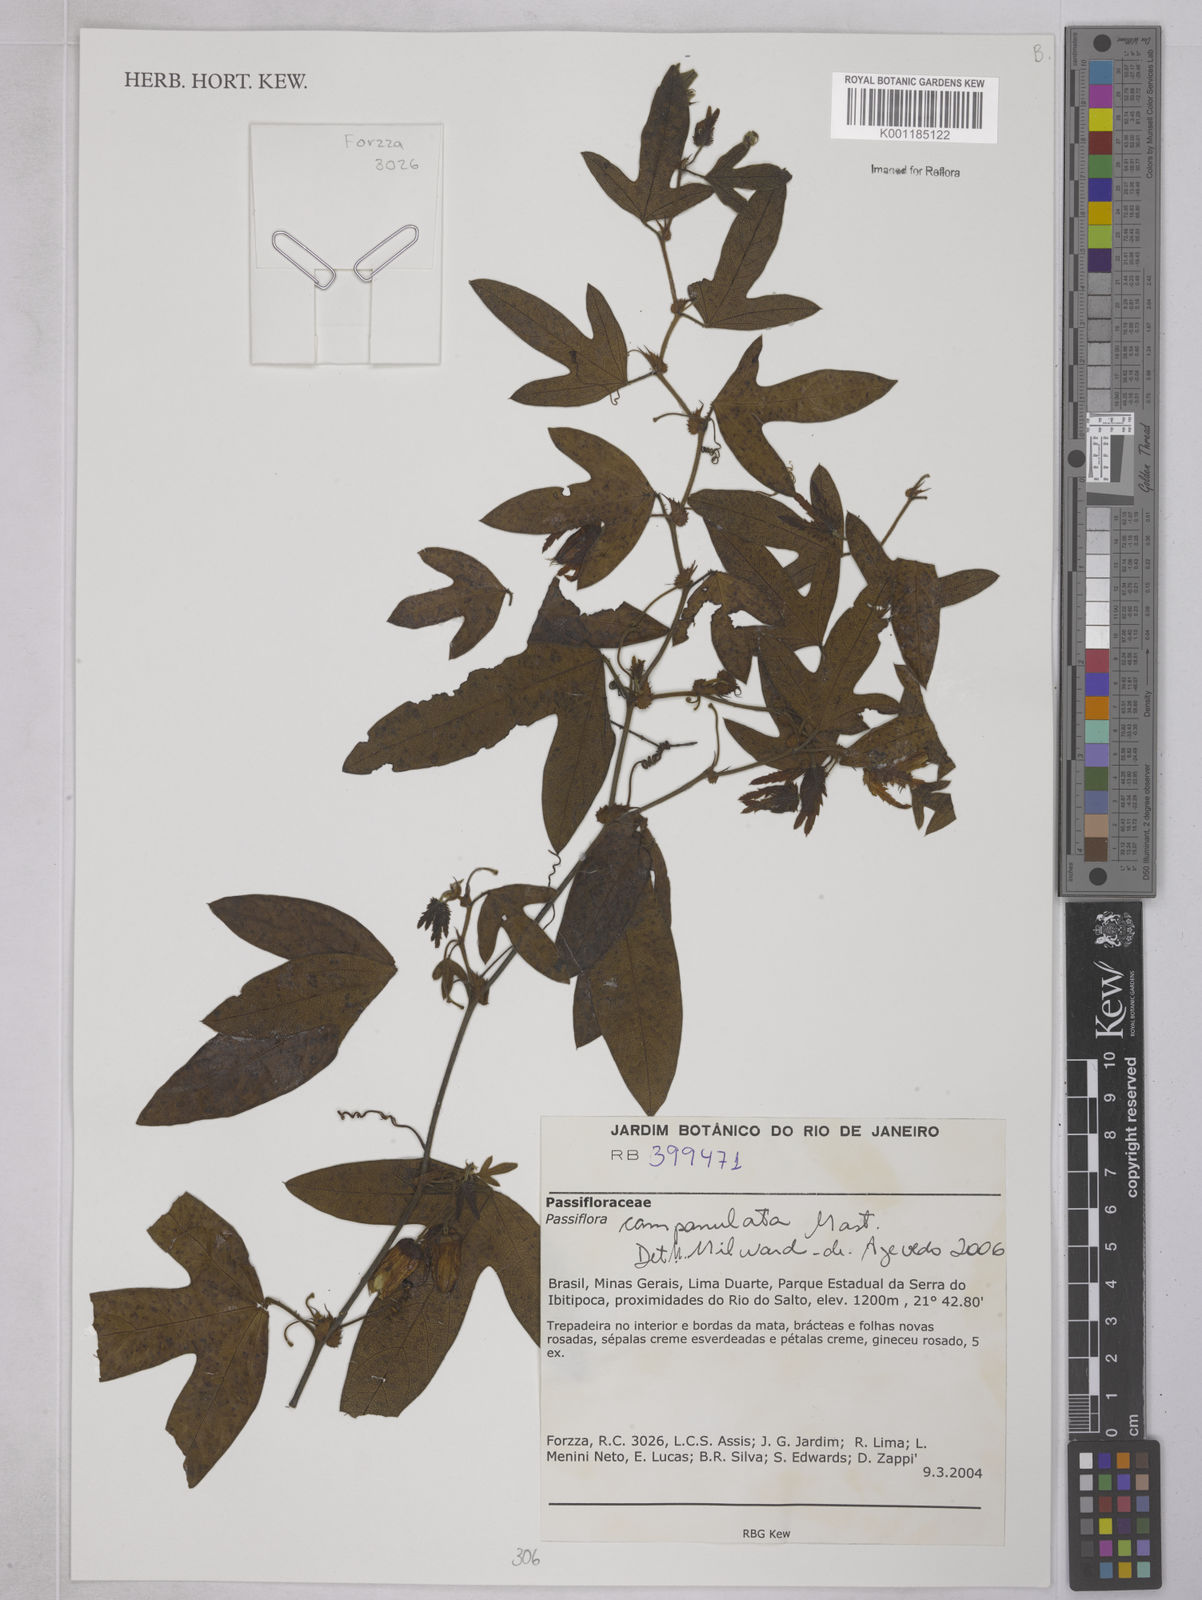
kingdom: Plantae
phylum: Tracheophyta
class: Magnoliopsida
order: Malpighiales
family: Passifloraceae
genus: Passiflora
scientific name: Passiflora campanulata
